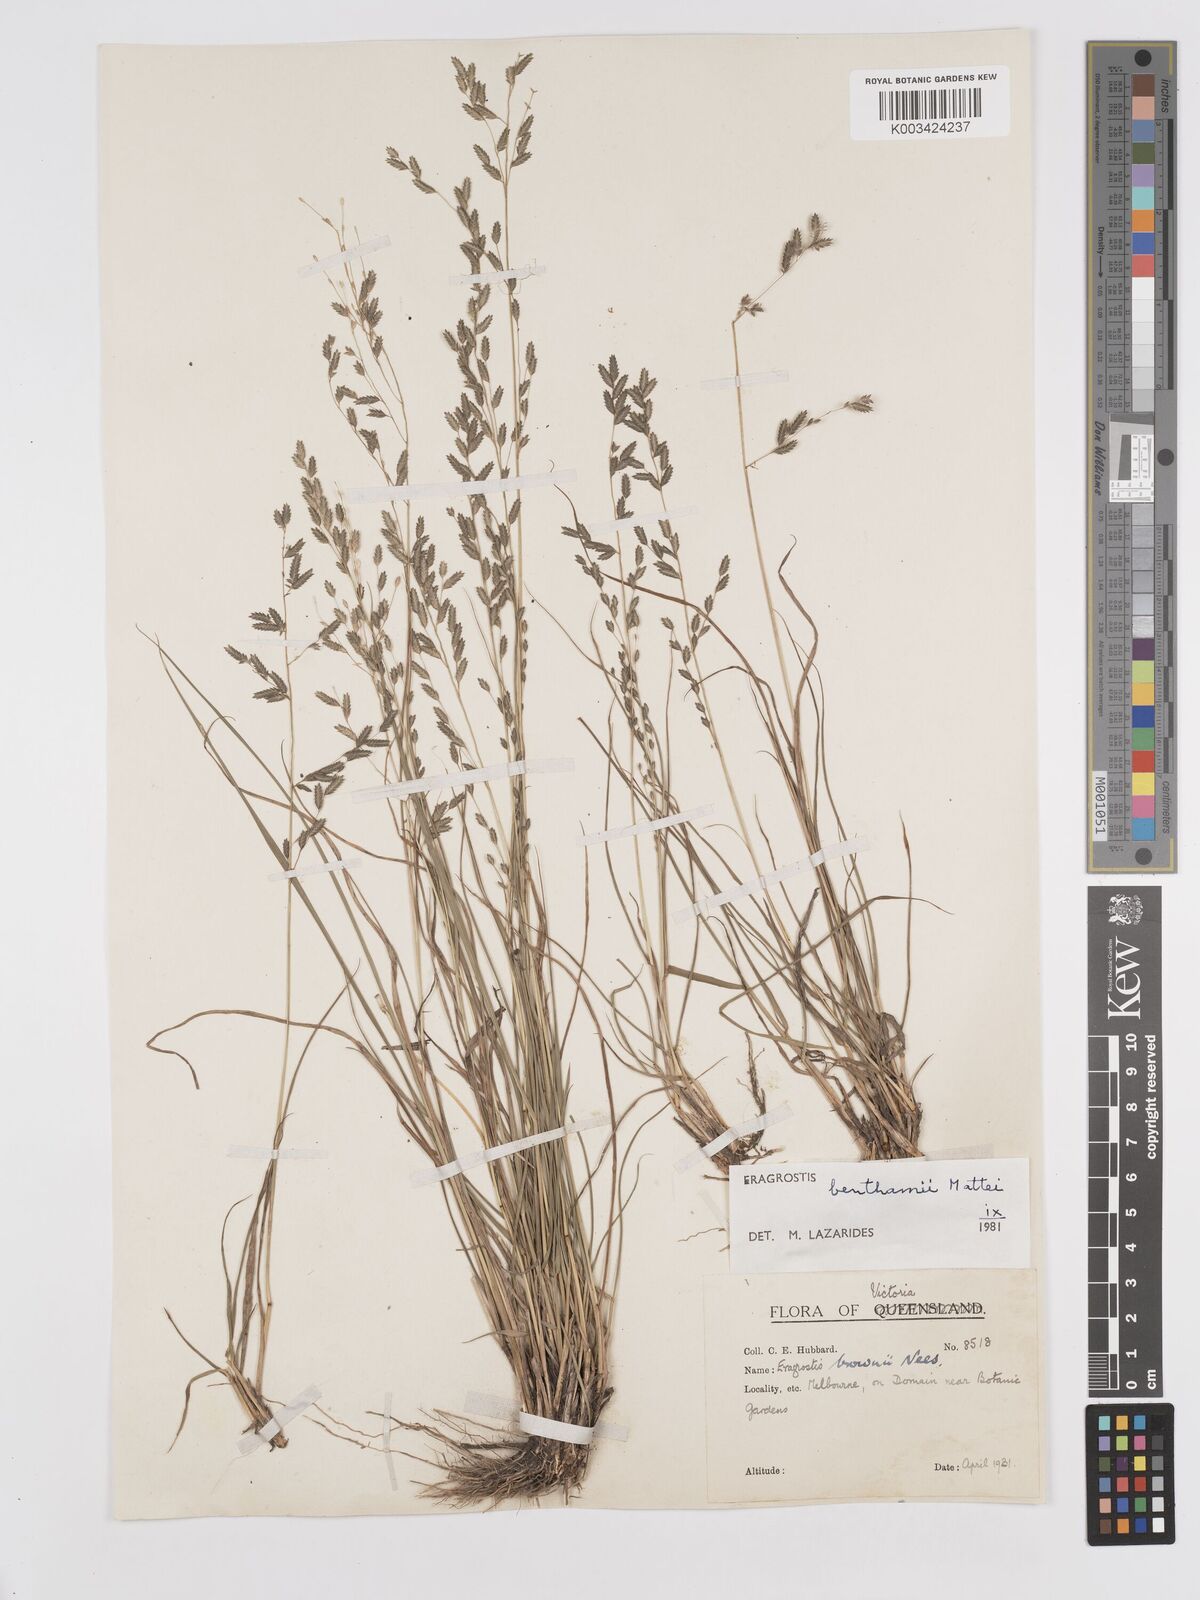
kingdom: Plantae
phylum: Tracheophyta
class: Liliopsida
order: Poales
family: Poaceae
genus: Eragrostis
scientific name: Eragrostis brownii
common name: Lovegrass
